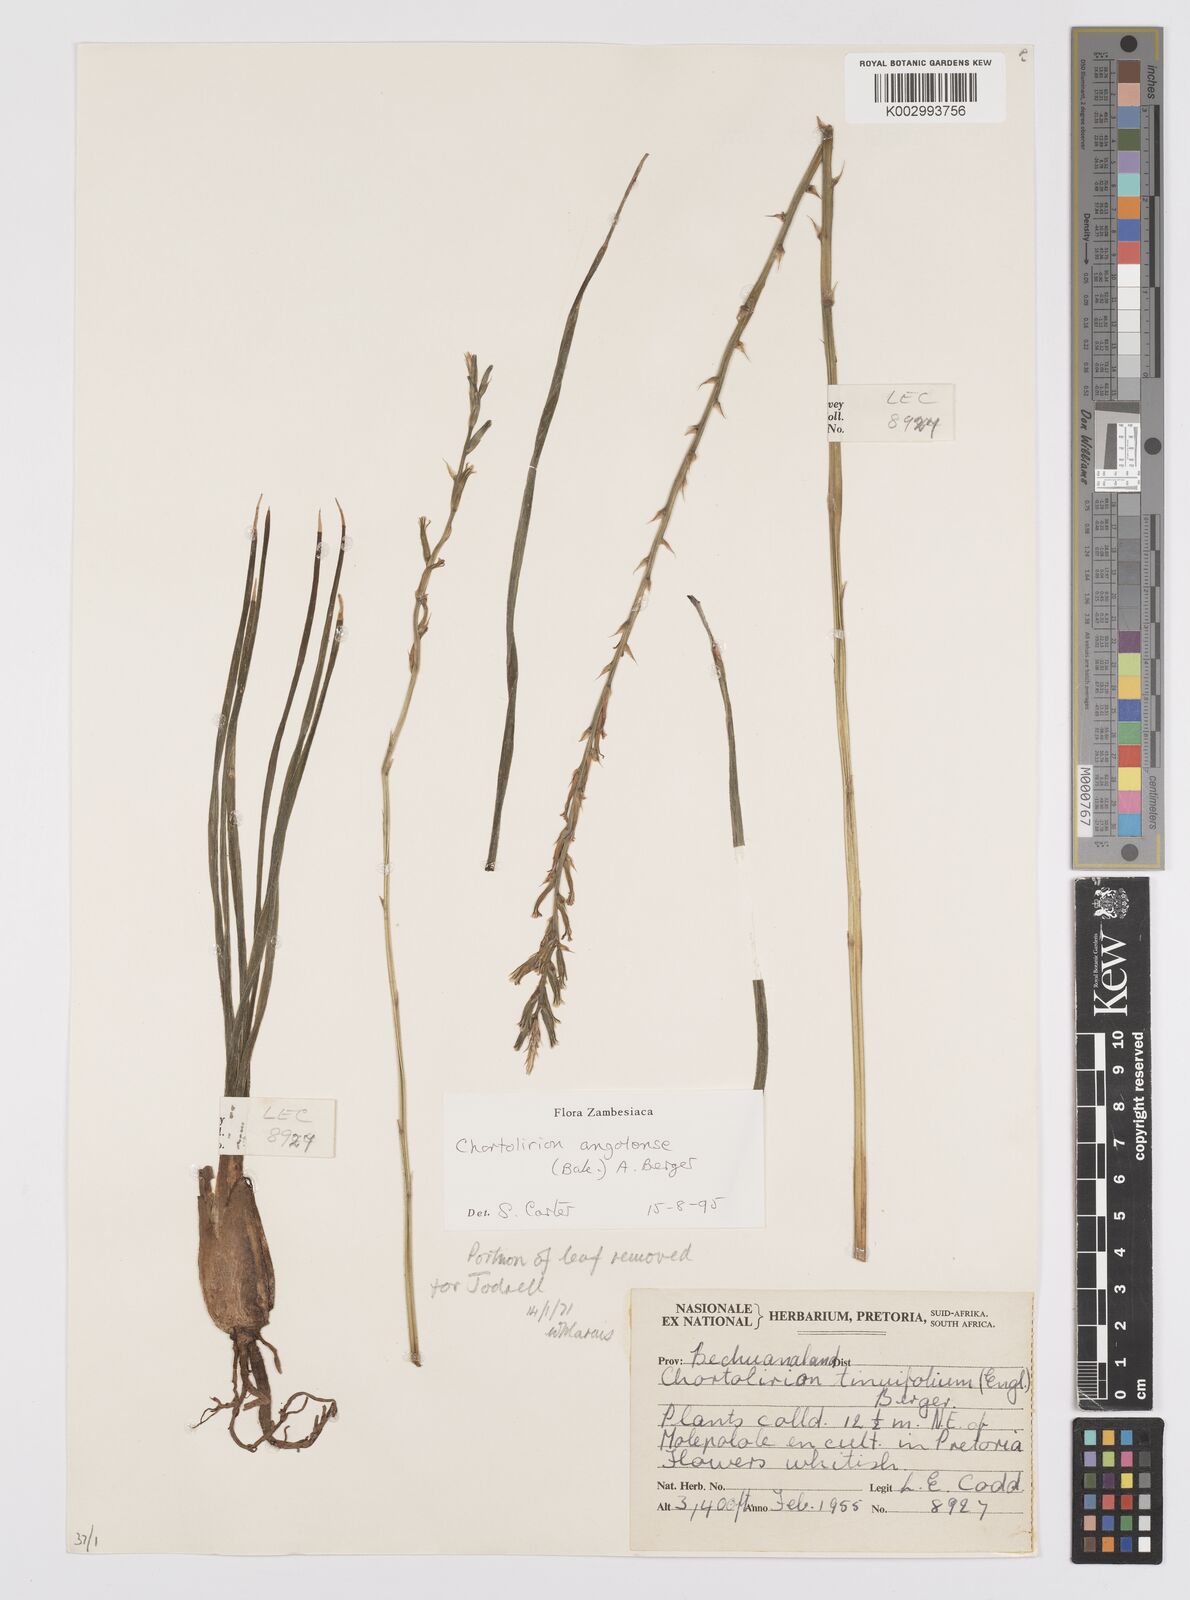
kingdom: Plantae
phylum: Tracheophyta
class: Liliopsida
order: Asparagales
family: Asphodelaceae
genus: Aloe
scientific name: Aloe welwitschii
